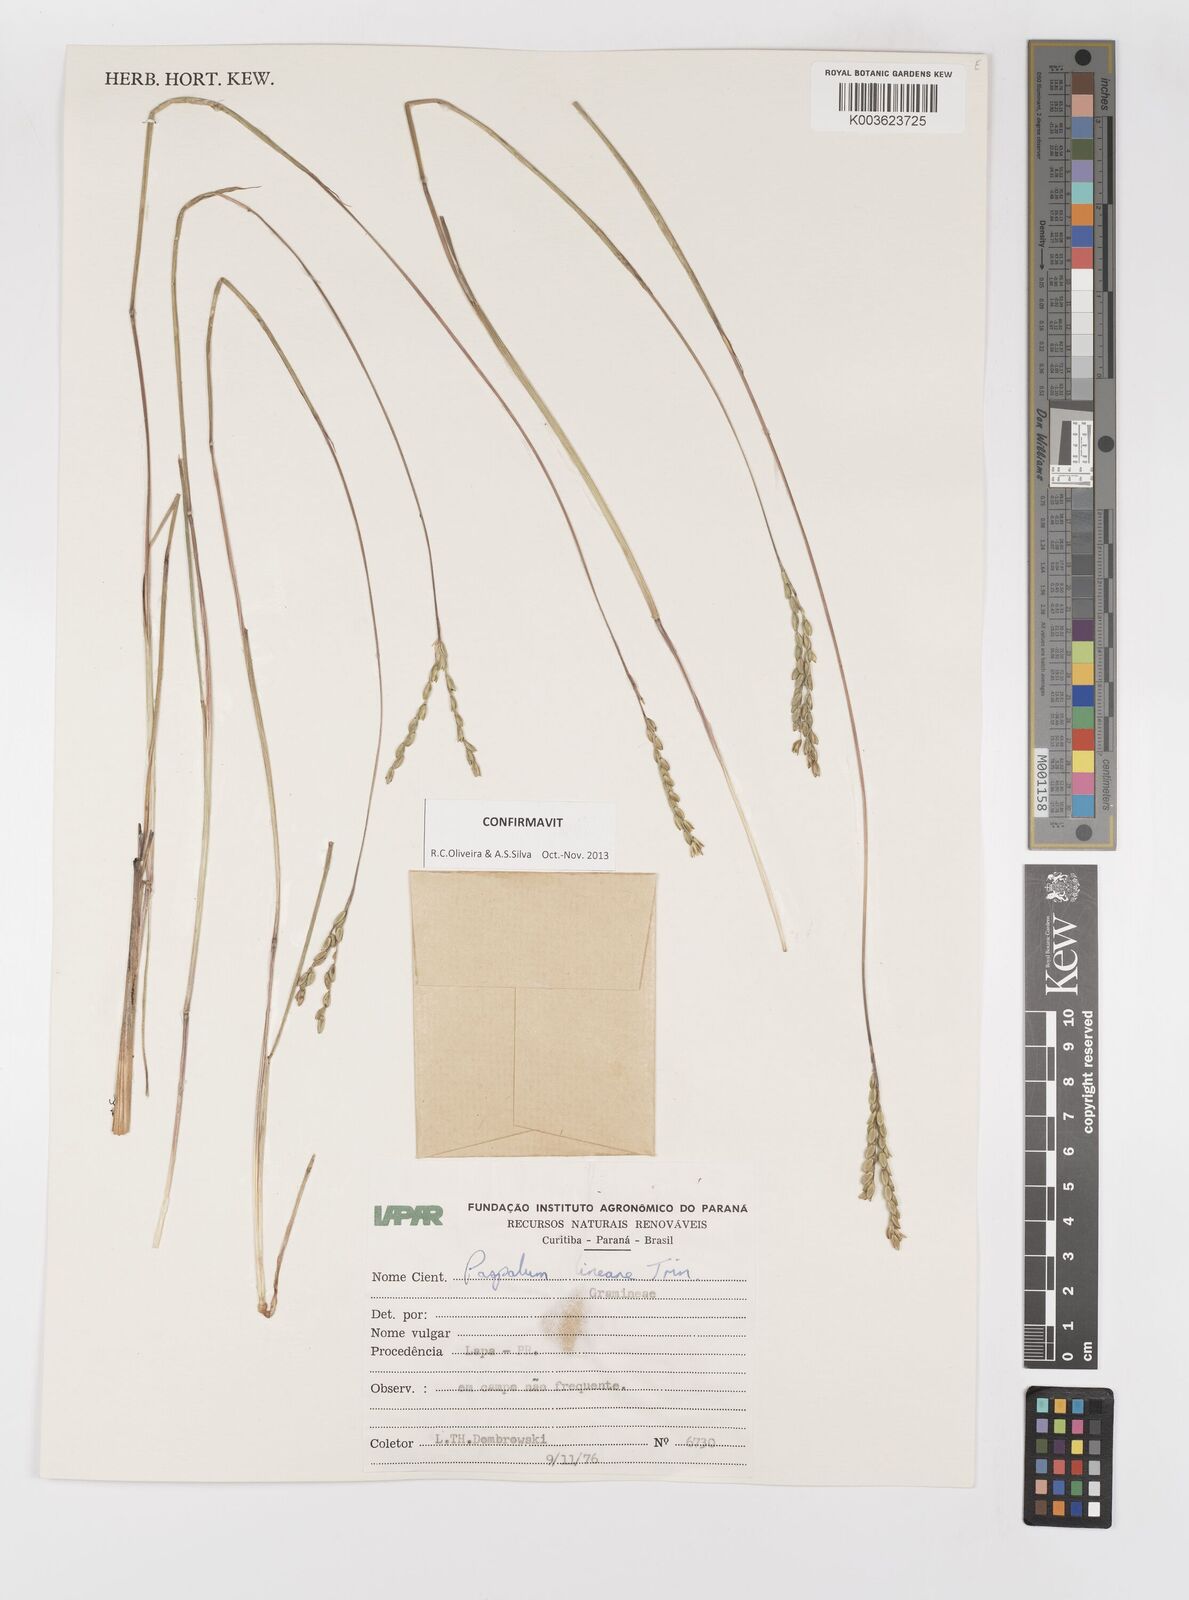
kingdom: Plantae
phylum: Tracheophyta
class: Liliopsida
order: Poales
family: Poaceae
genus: Paspalum
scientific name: Paspalum caespitosum
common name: Blue crowngrass
